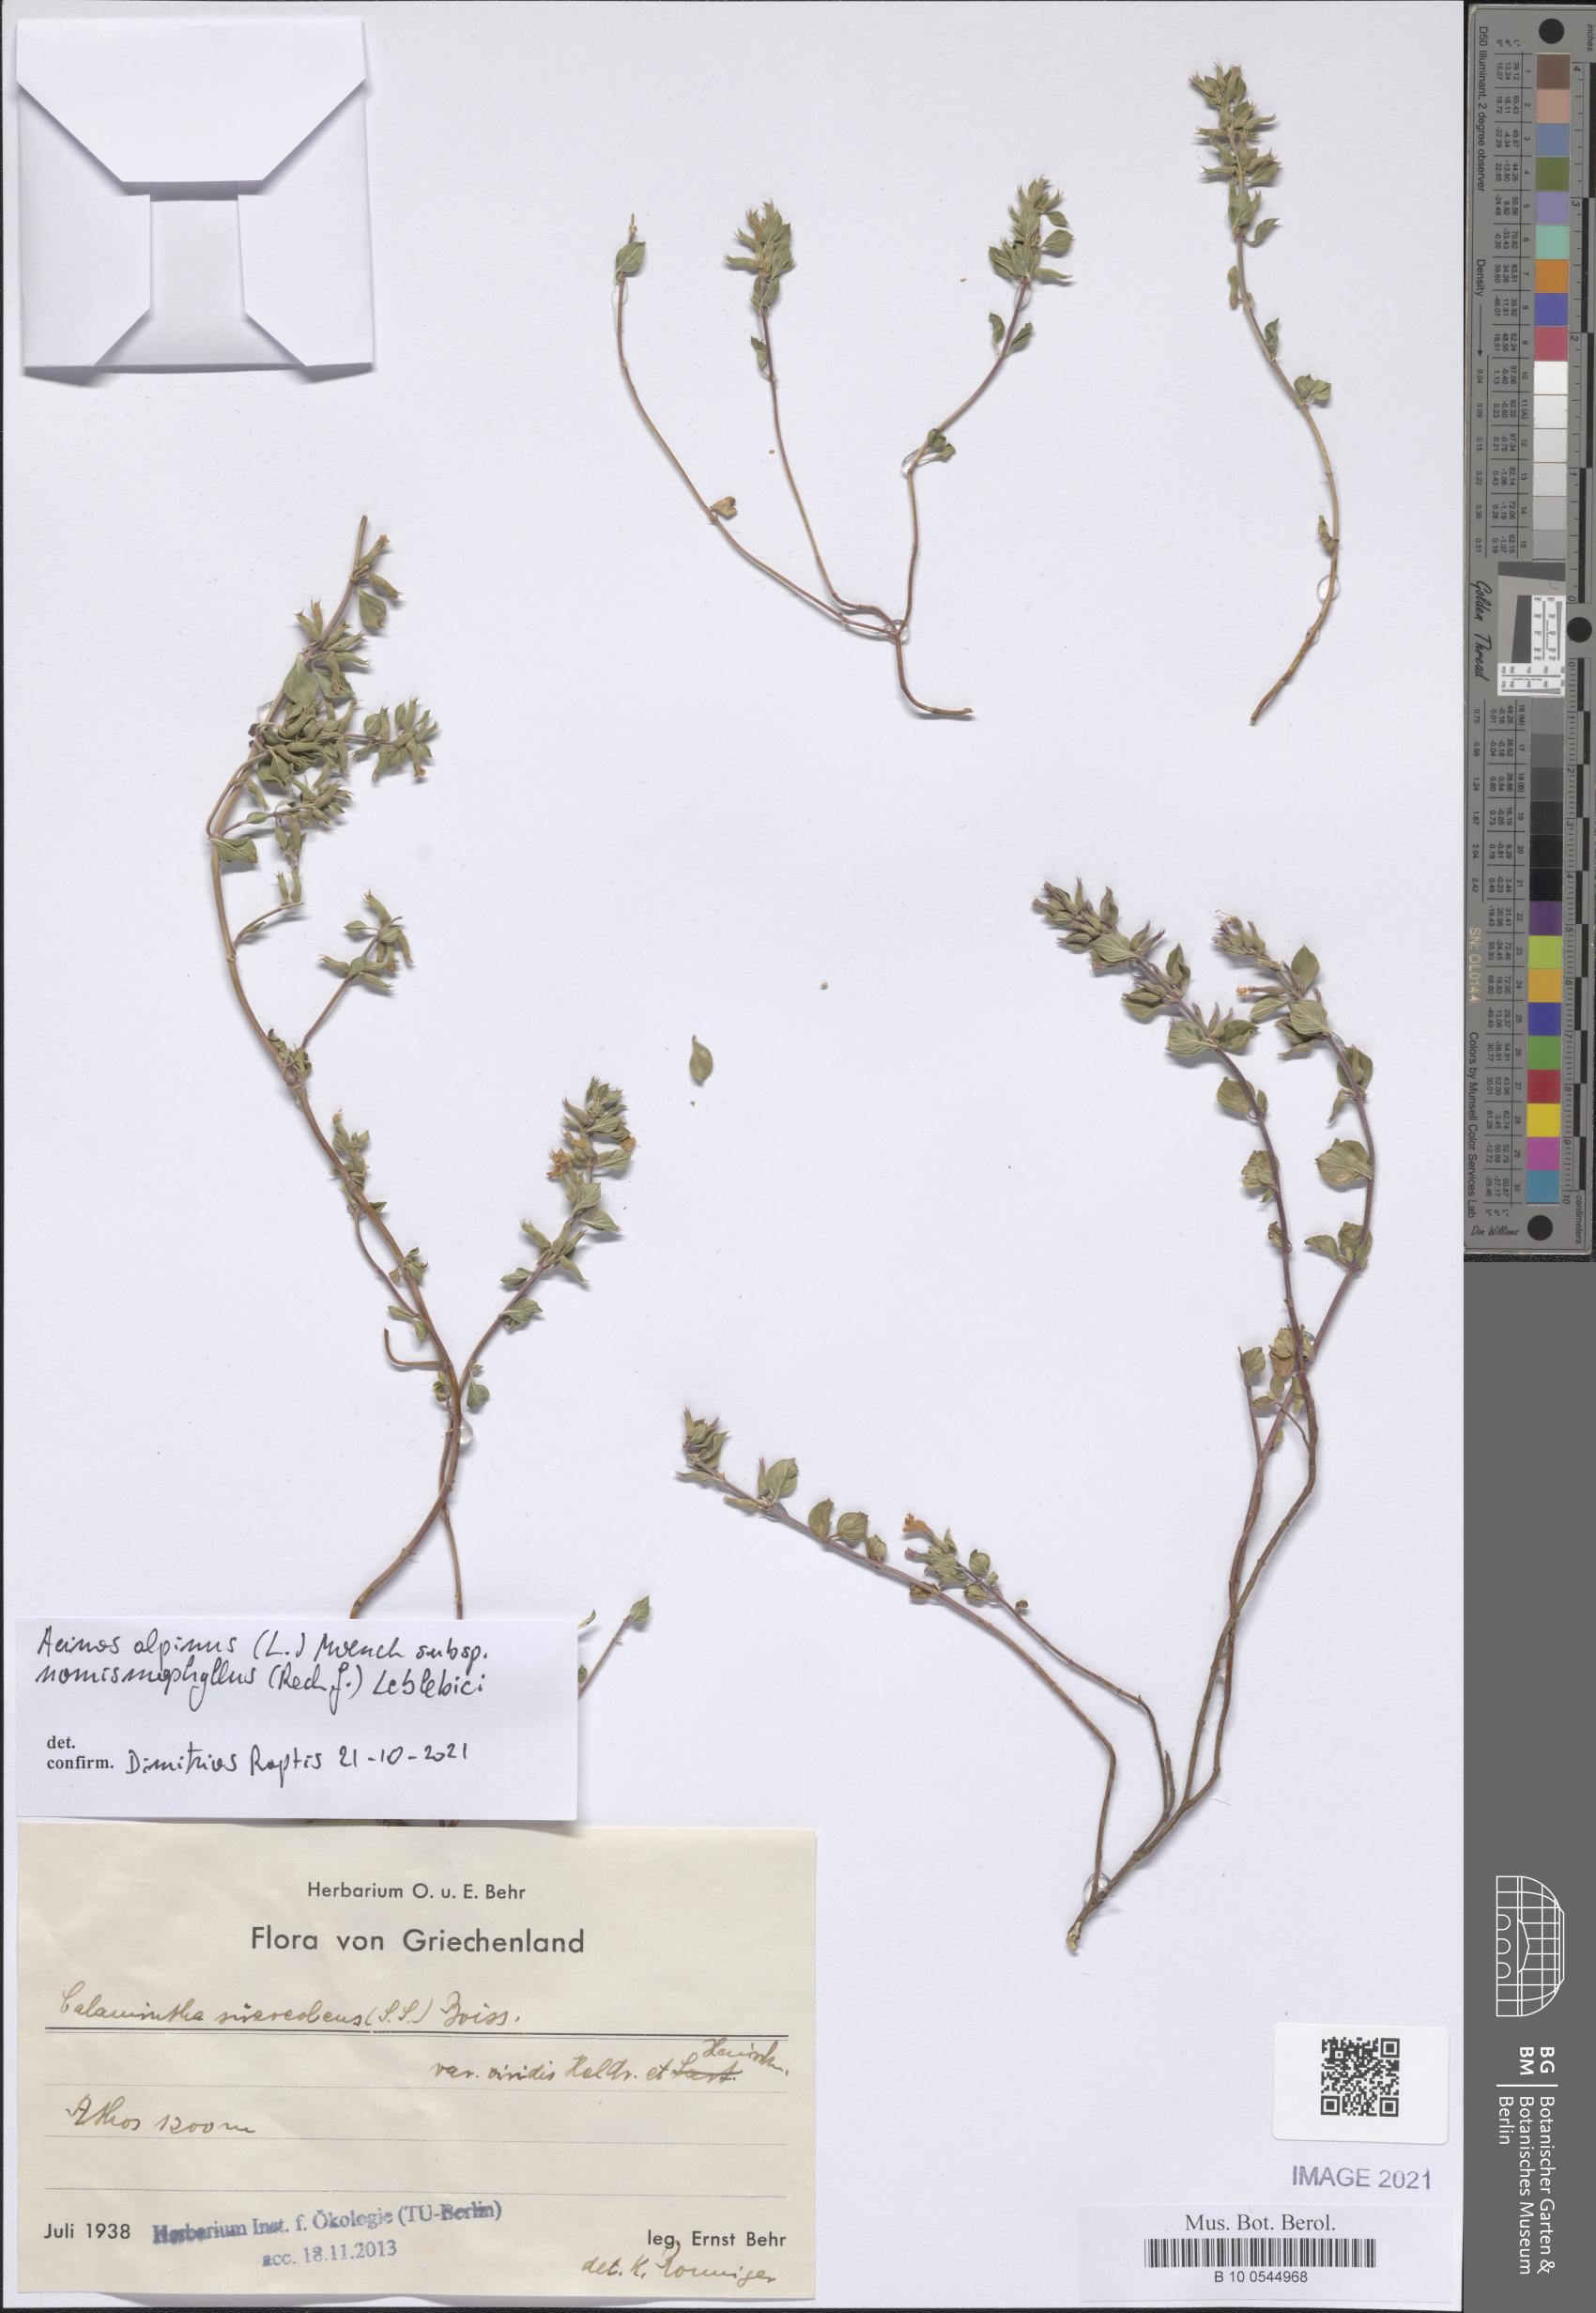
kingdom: Plantae
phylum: Tracheophyta
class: Magnoliopsida
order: Lamiales
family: Lamiaceae
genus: Clinopodium
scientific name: Clinopodium alpinum
